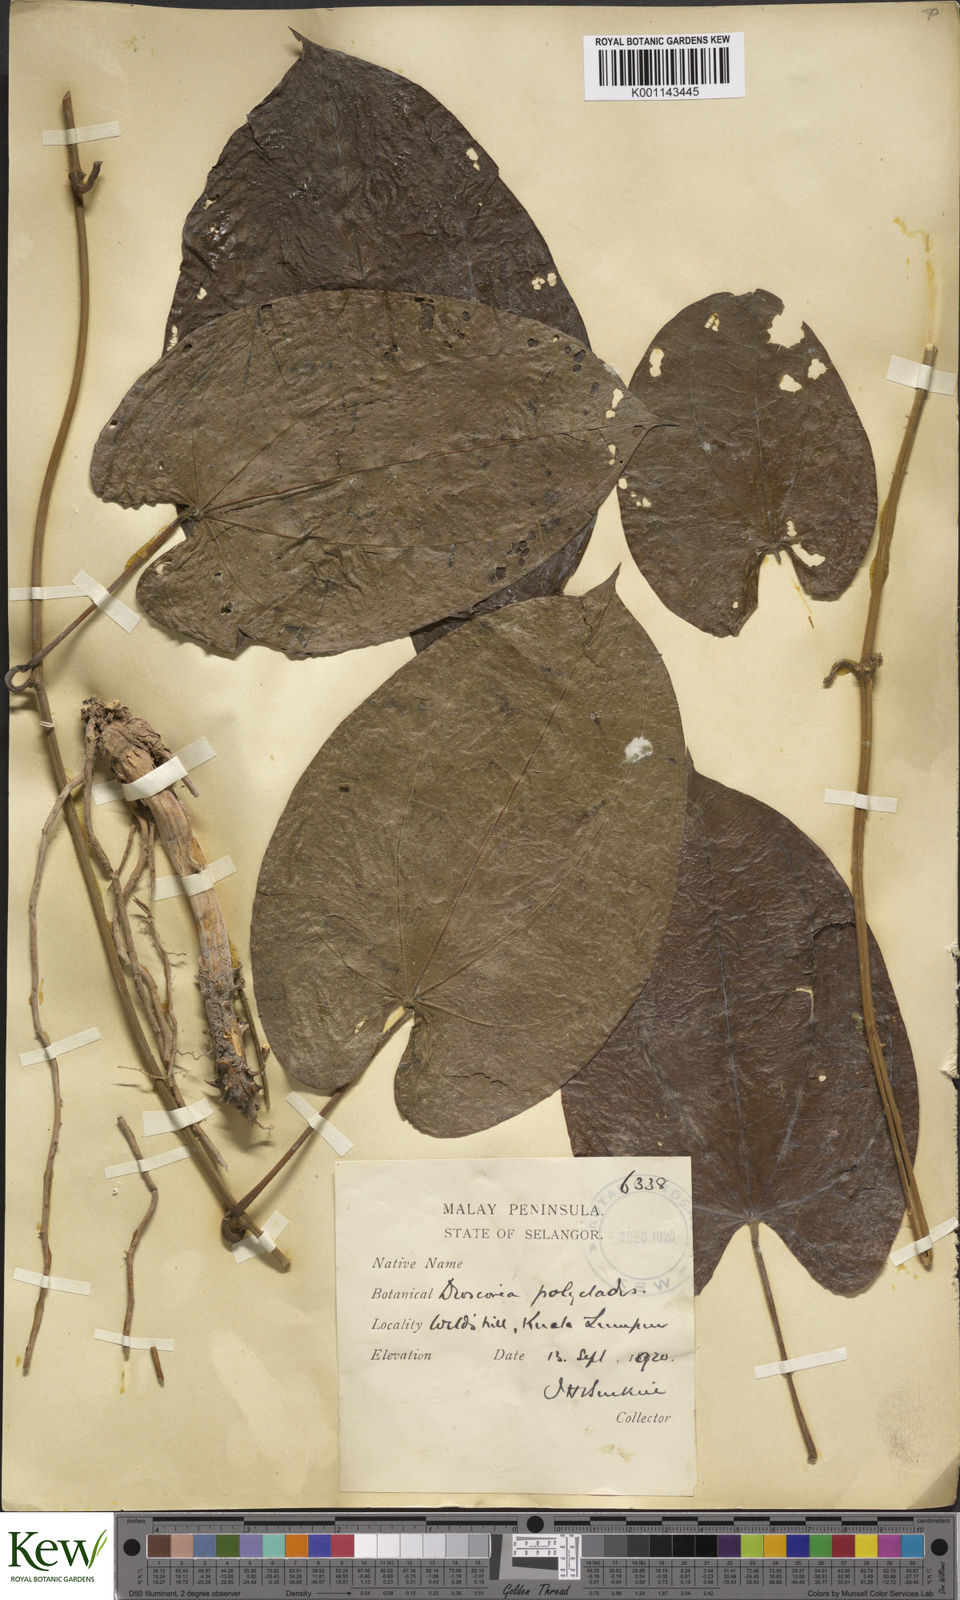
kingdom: Plantae
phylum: Tracheophyta
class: Liliopsida
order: Dioscoreales
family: Dioscoreaceae
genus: Dioscorea
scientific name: Dioscorea polyclados
